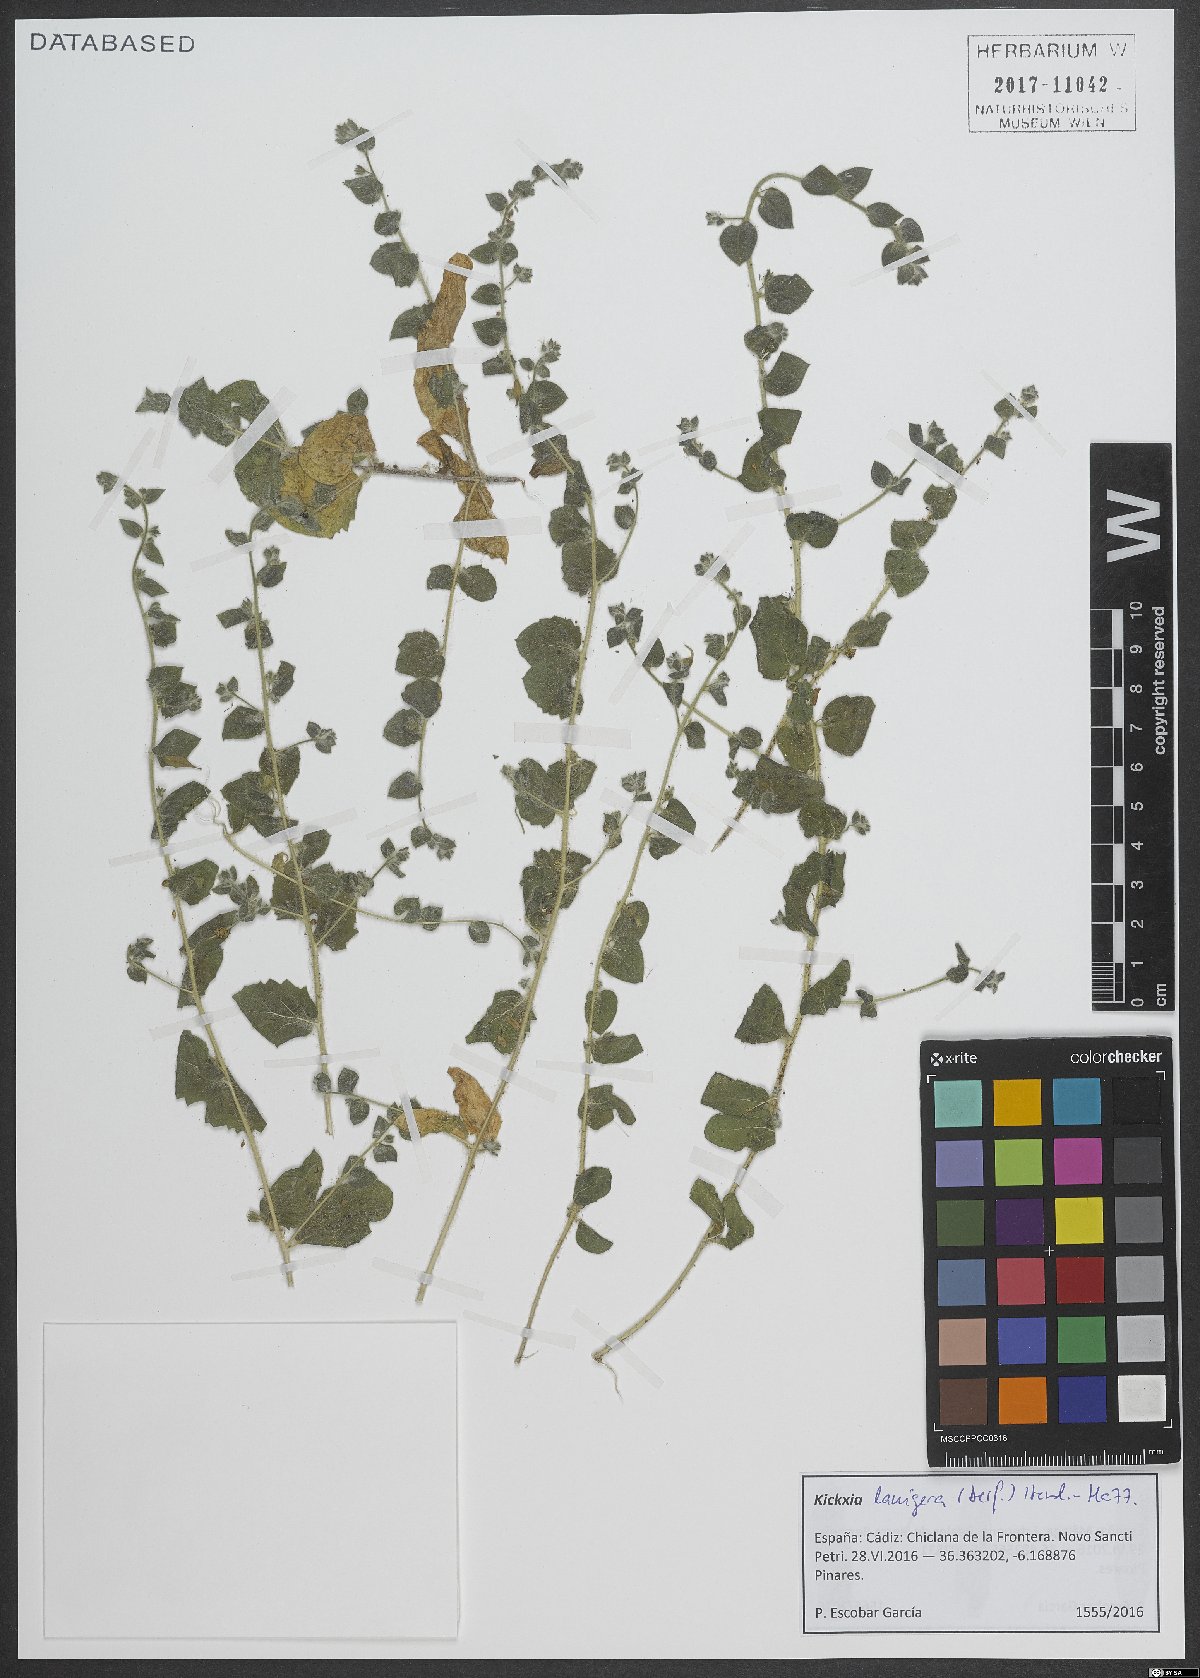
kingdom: Plantae
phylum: Tracheophyta
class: Magnoliopsida
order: Lamiales
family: Plantaginaceae
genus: Kickxia
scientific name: Kickxia lanigera
